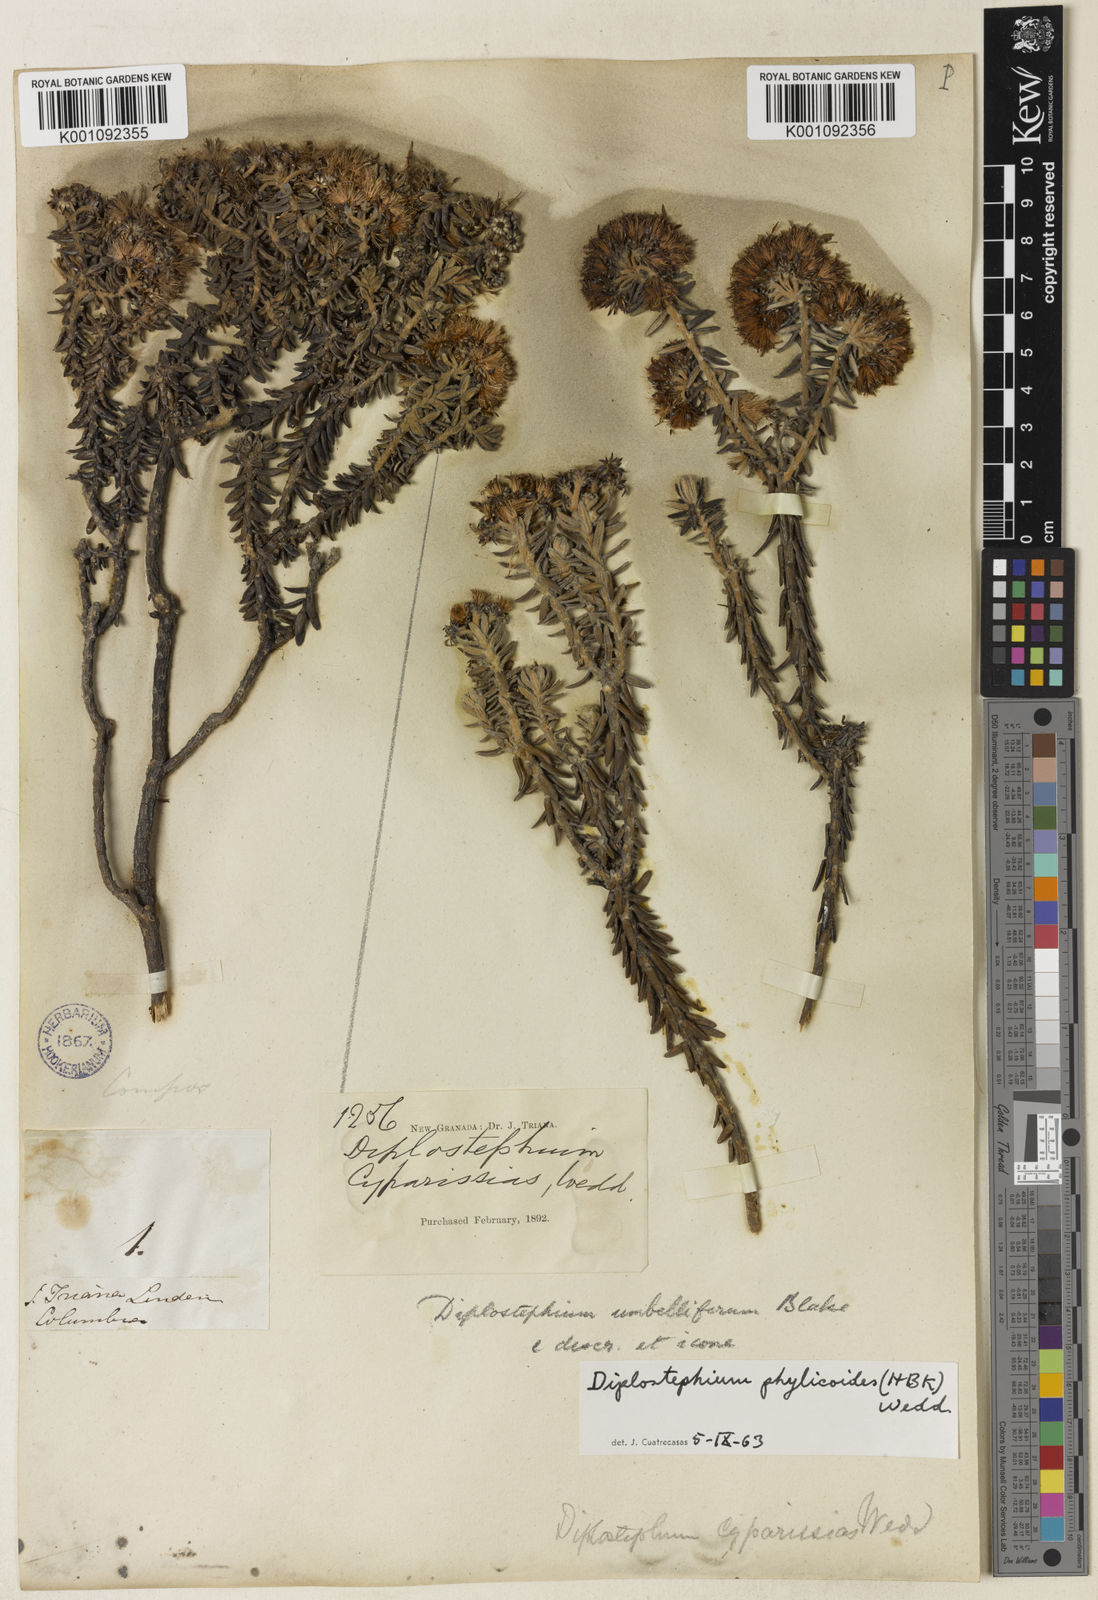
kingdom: Plantae
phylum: Tracheophyta
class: Magnoliopsida
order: Asterales
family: Asteraceae
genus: Linochilus
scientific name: Linochilus phylicoides
